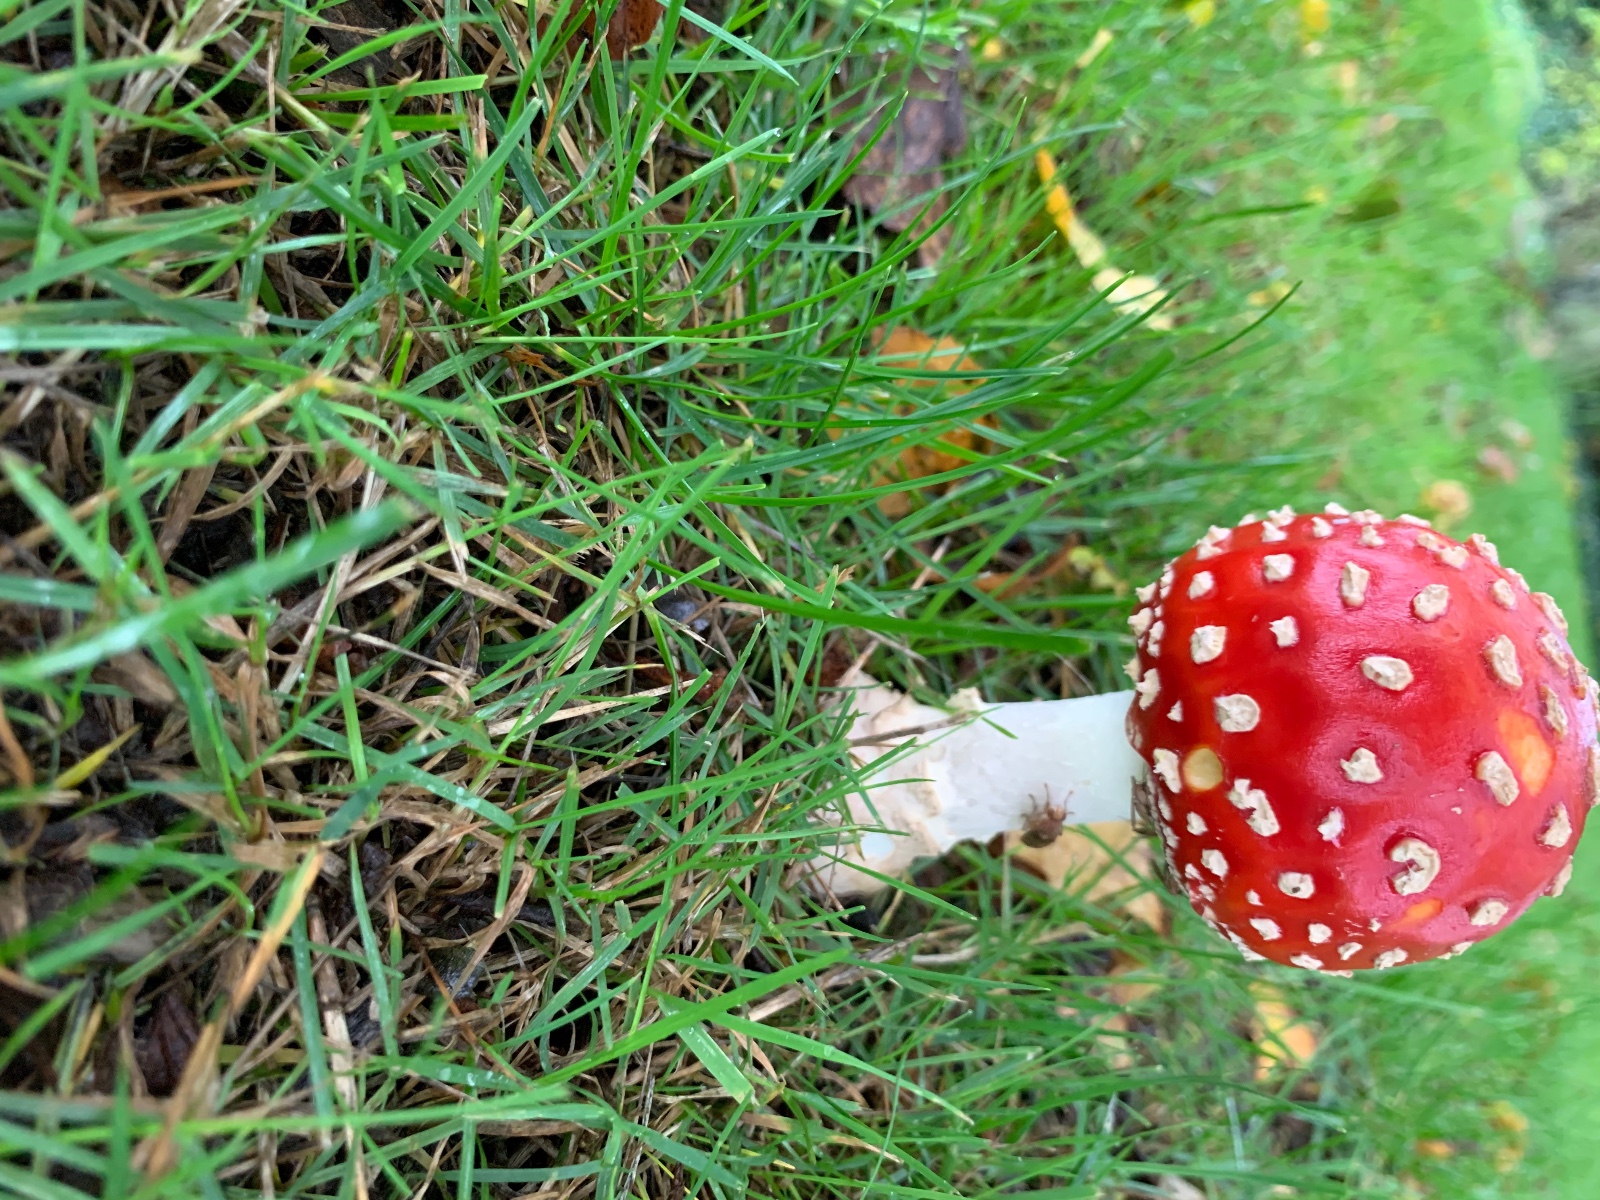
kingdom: Fungi
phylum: Basidiomycota
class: Agaricomycetes
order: Agaricales
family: Amanitaceae
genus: Amanita
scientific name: Amanita muscaria
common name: rød fluesvamp
